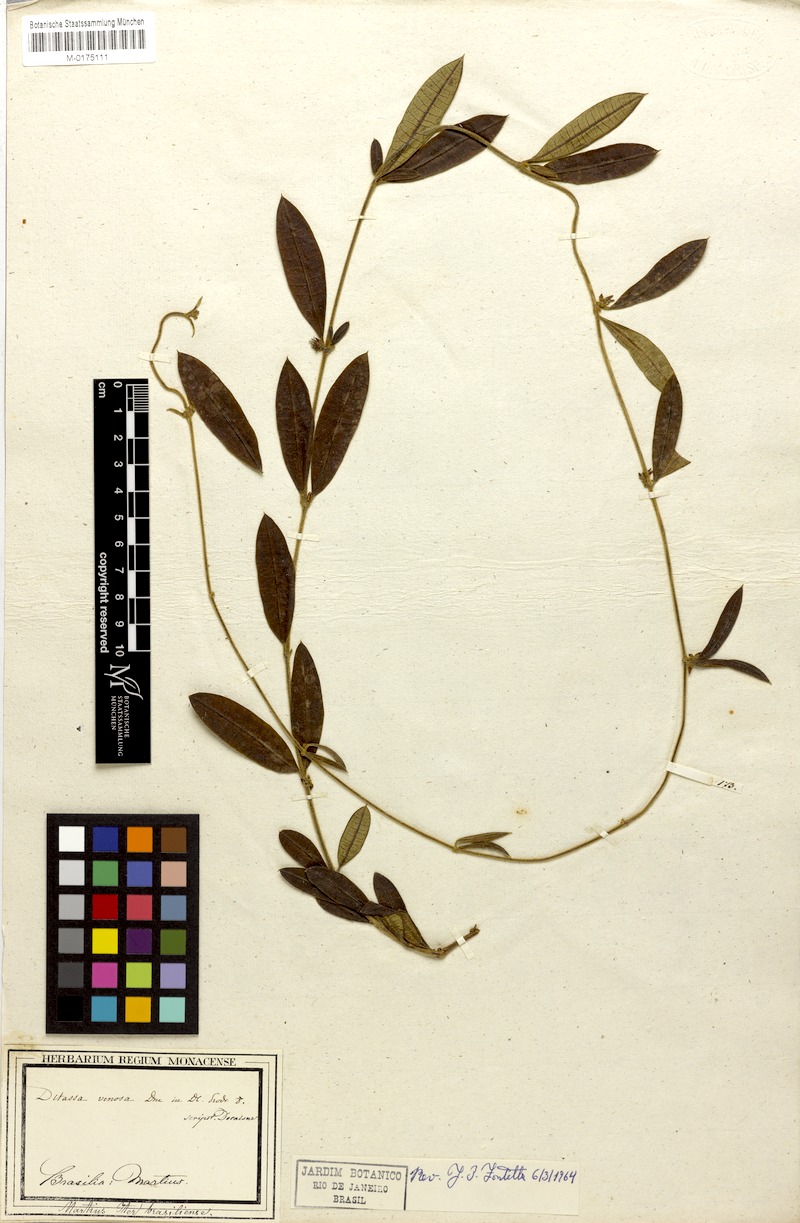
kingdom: Plantae
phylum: Tracheophyta
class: Magnoliopsida
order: Gentianales
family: Apocynaceae
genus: Ditassa
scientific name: Ditassa tomentosa
